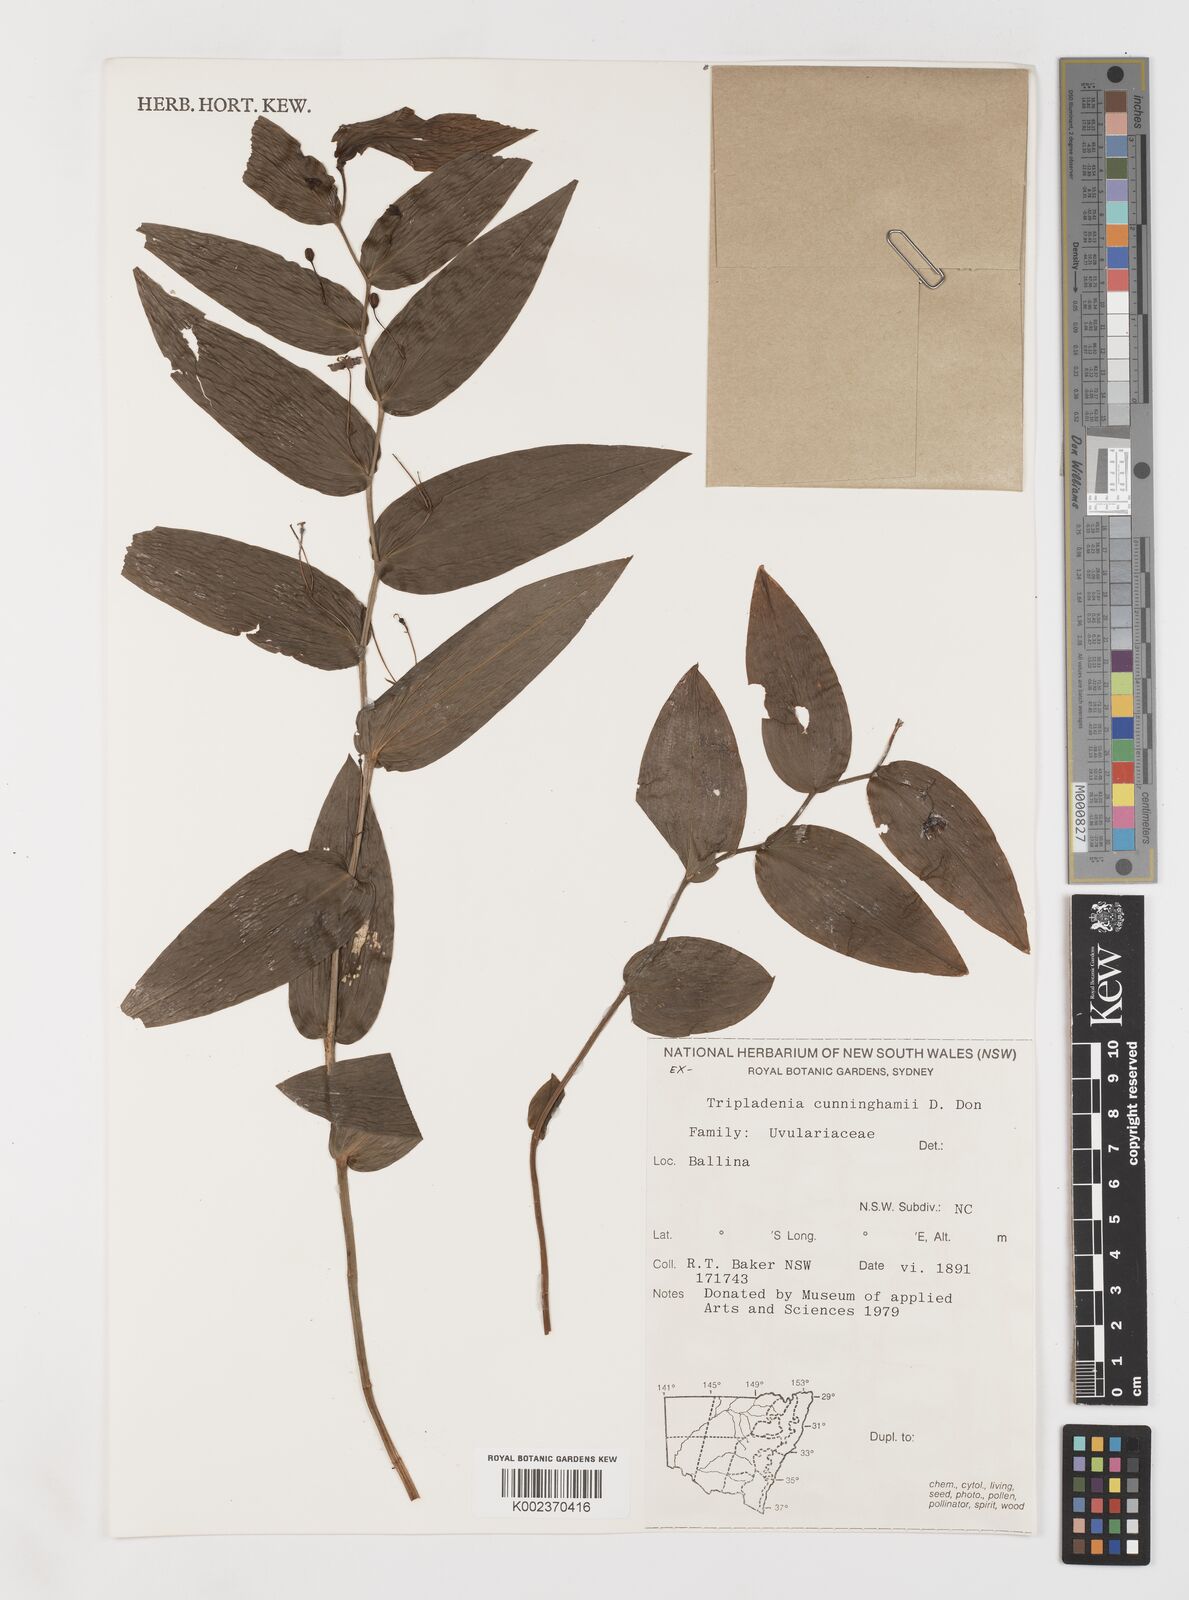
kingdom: Plantae
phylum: Tracheophyta
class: Liliopsida
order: Liliales
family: Colchicaceae
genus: Tripladenia
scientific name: Tripladenia
